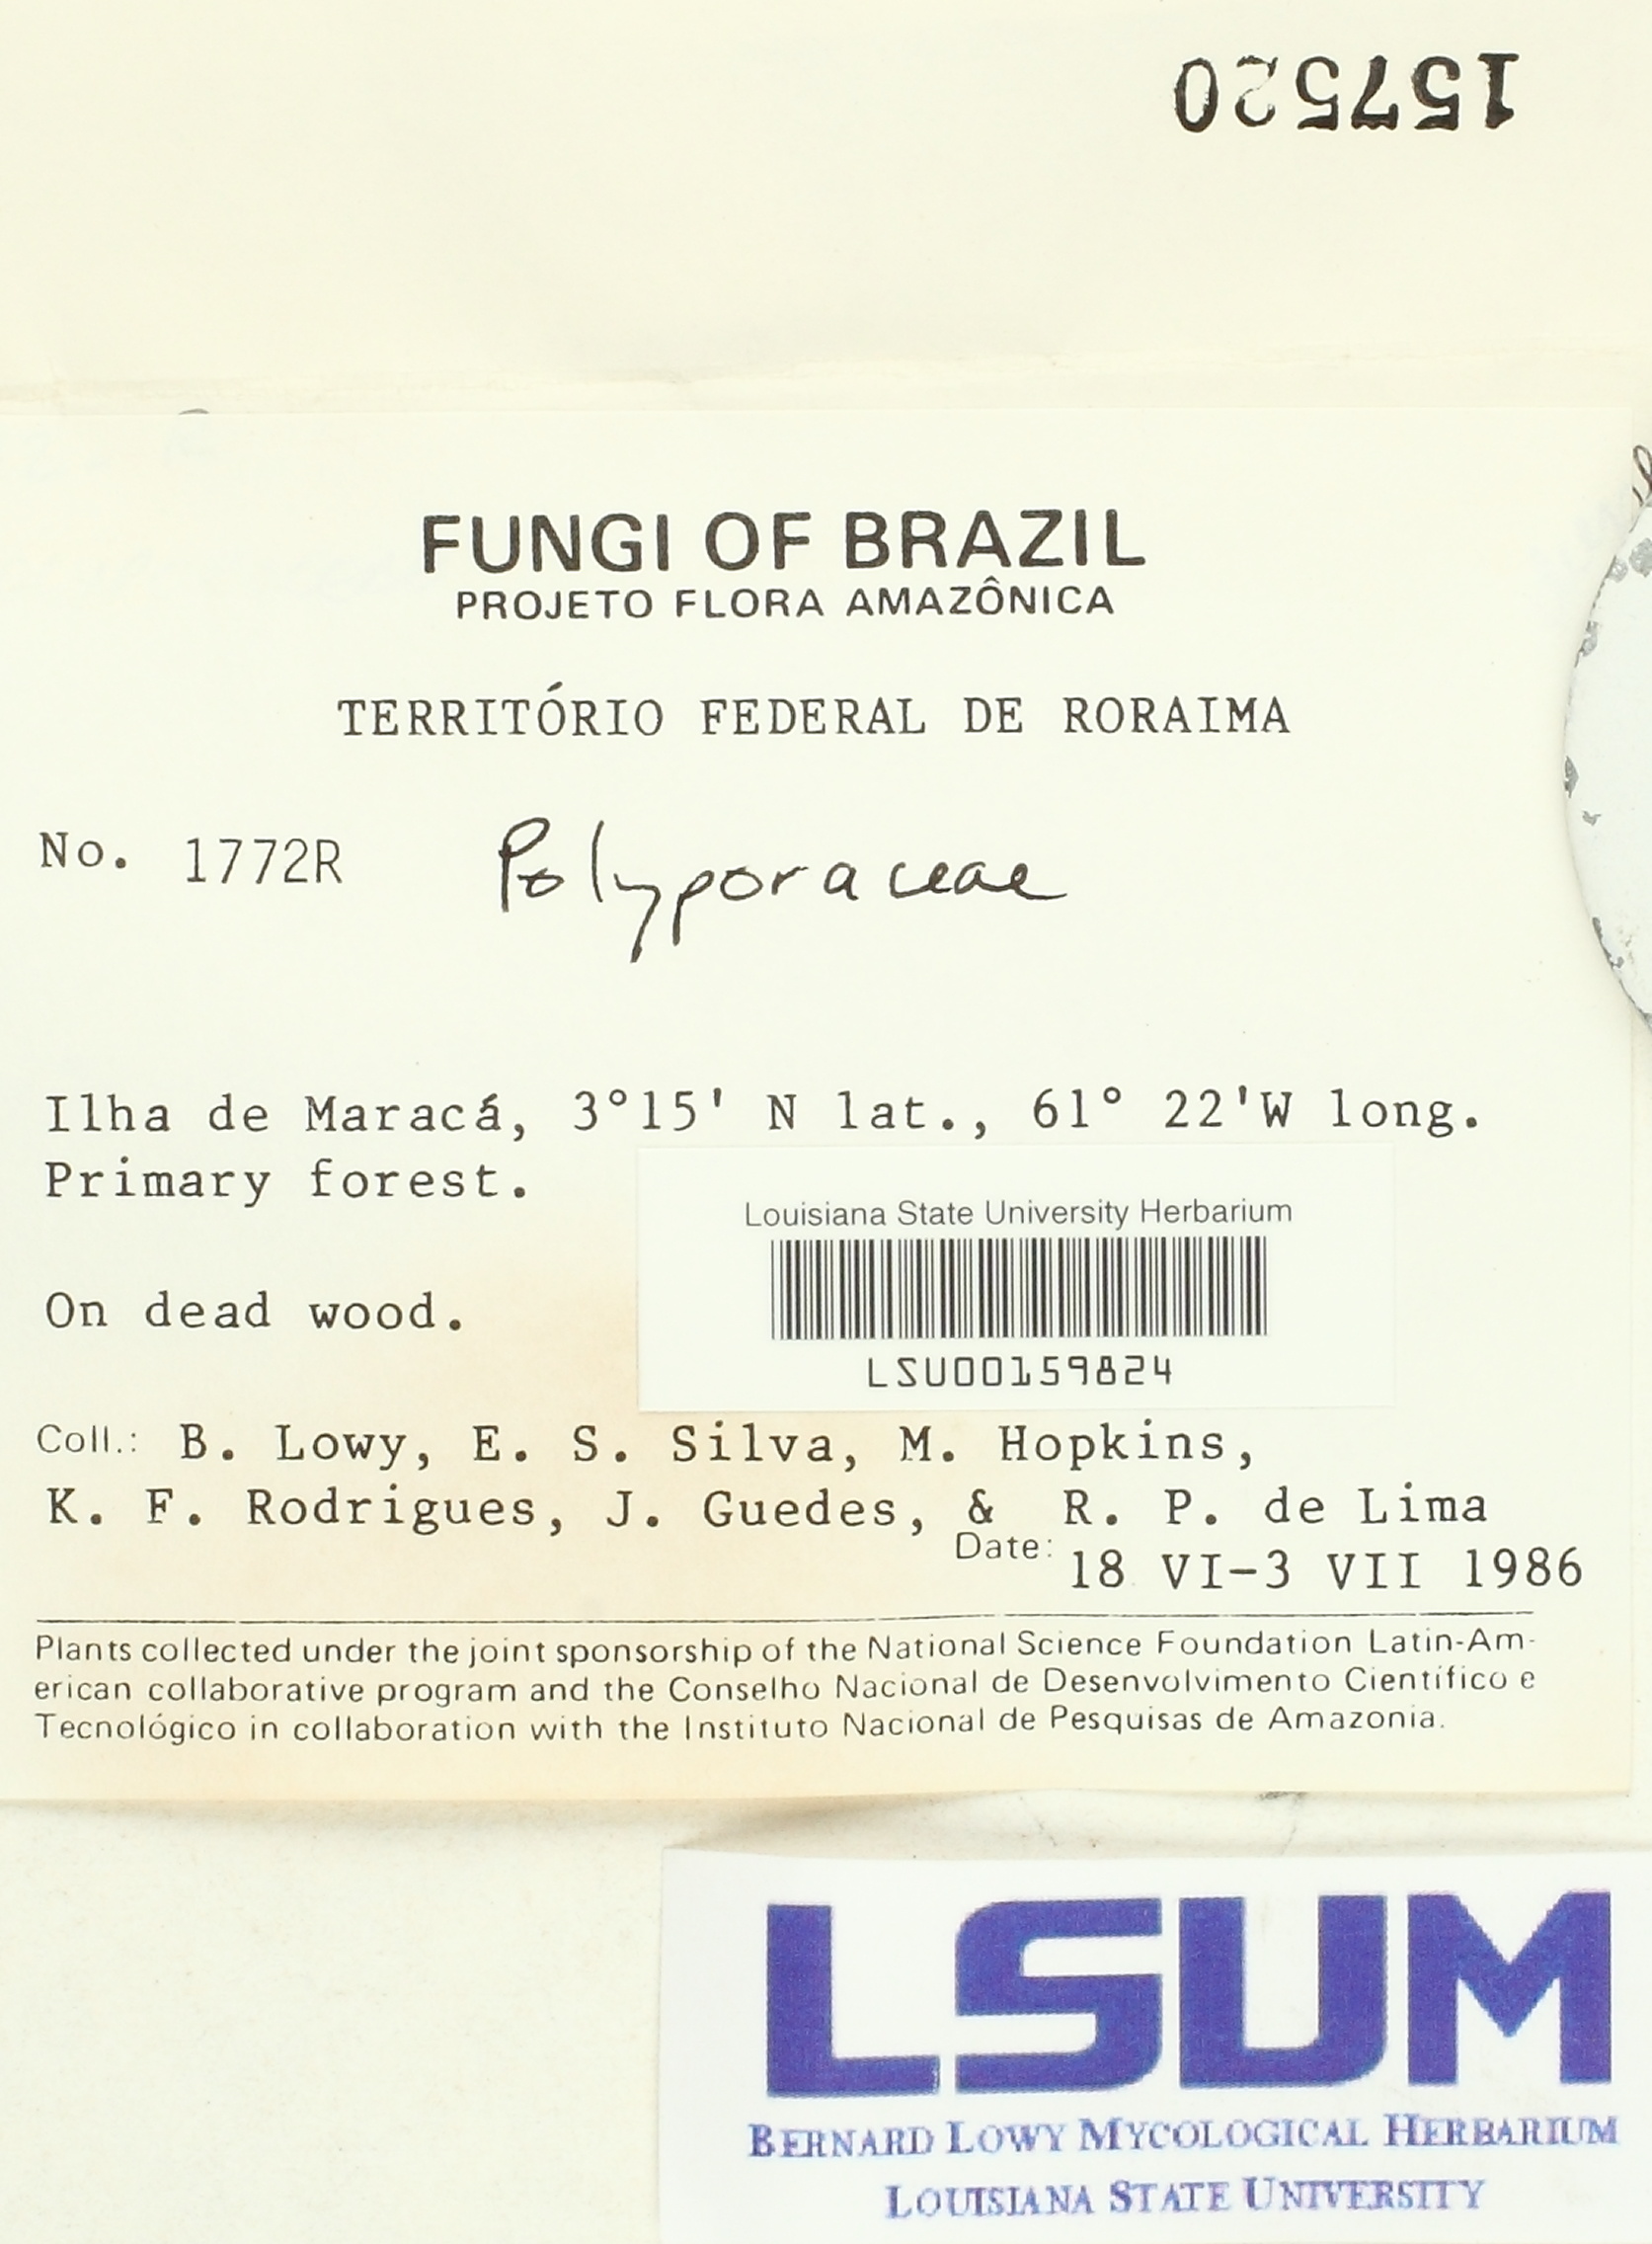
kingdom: Fungi
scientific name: Fungi
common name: Fungi
